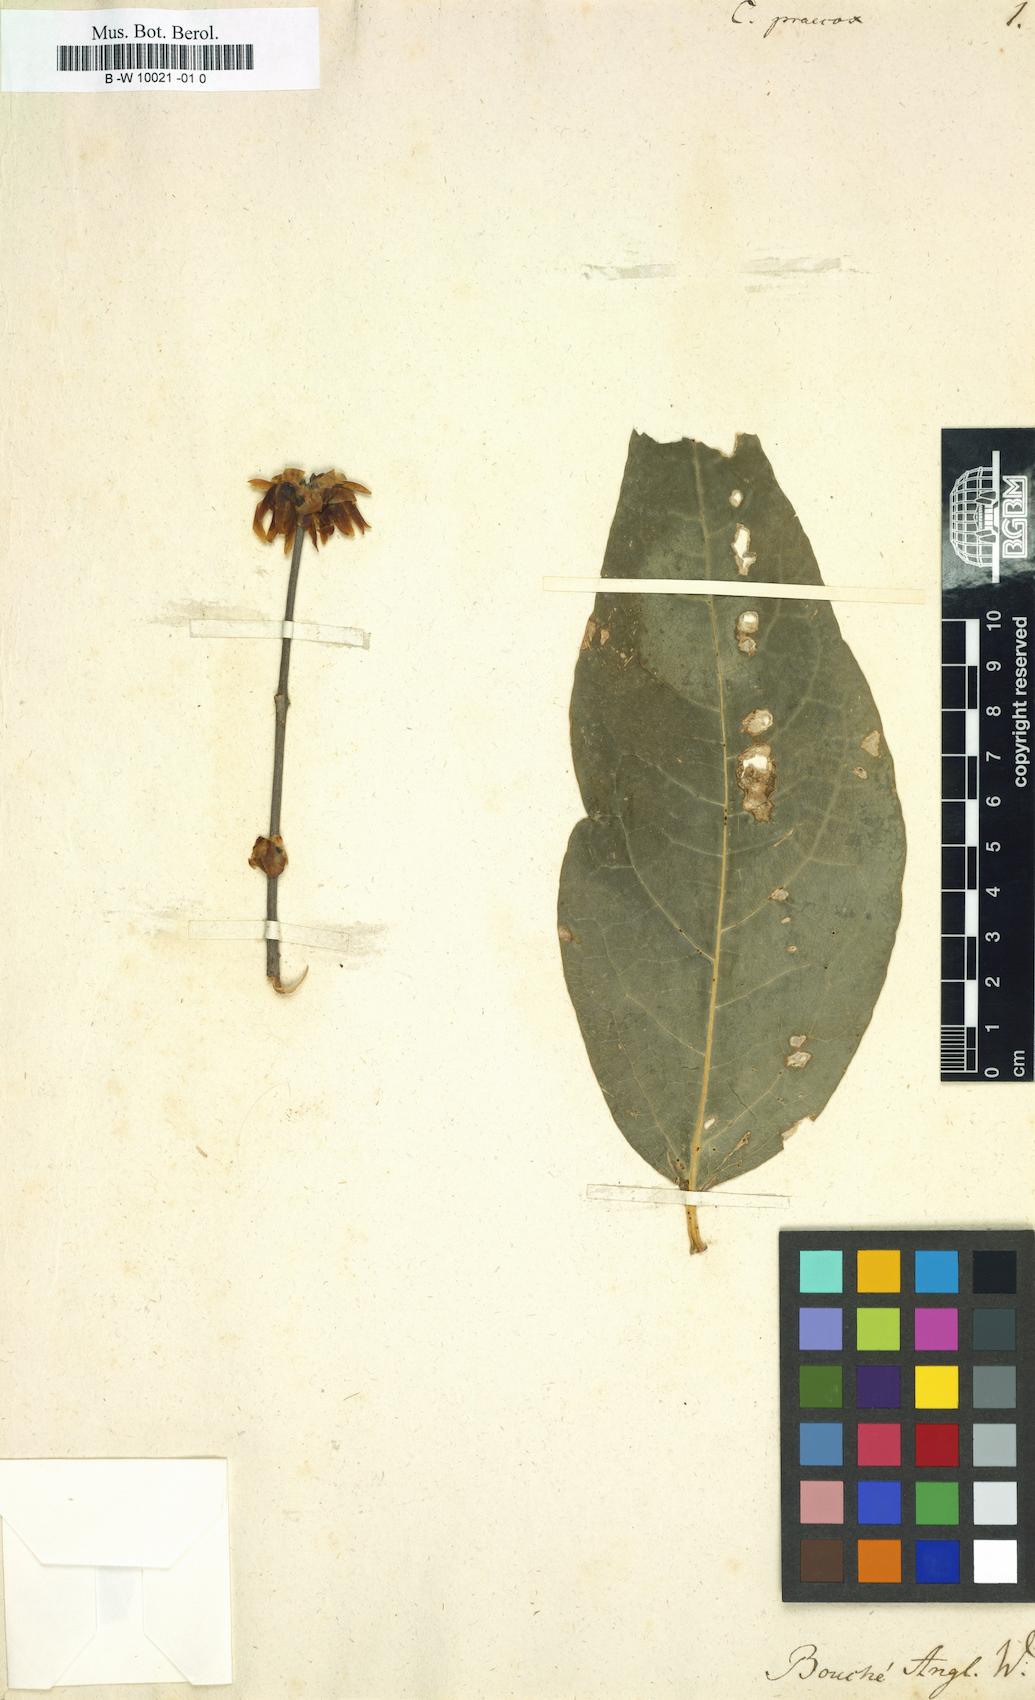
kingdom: Plantae
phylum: Tracheophyta
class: Magnoliopsida
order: Laurales
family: Calycanthaceae
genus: Chimonanthus
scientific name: Chimonanthus praecox
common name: Wintersweet
